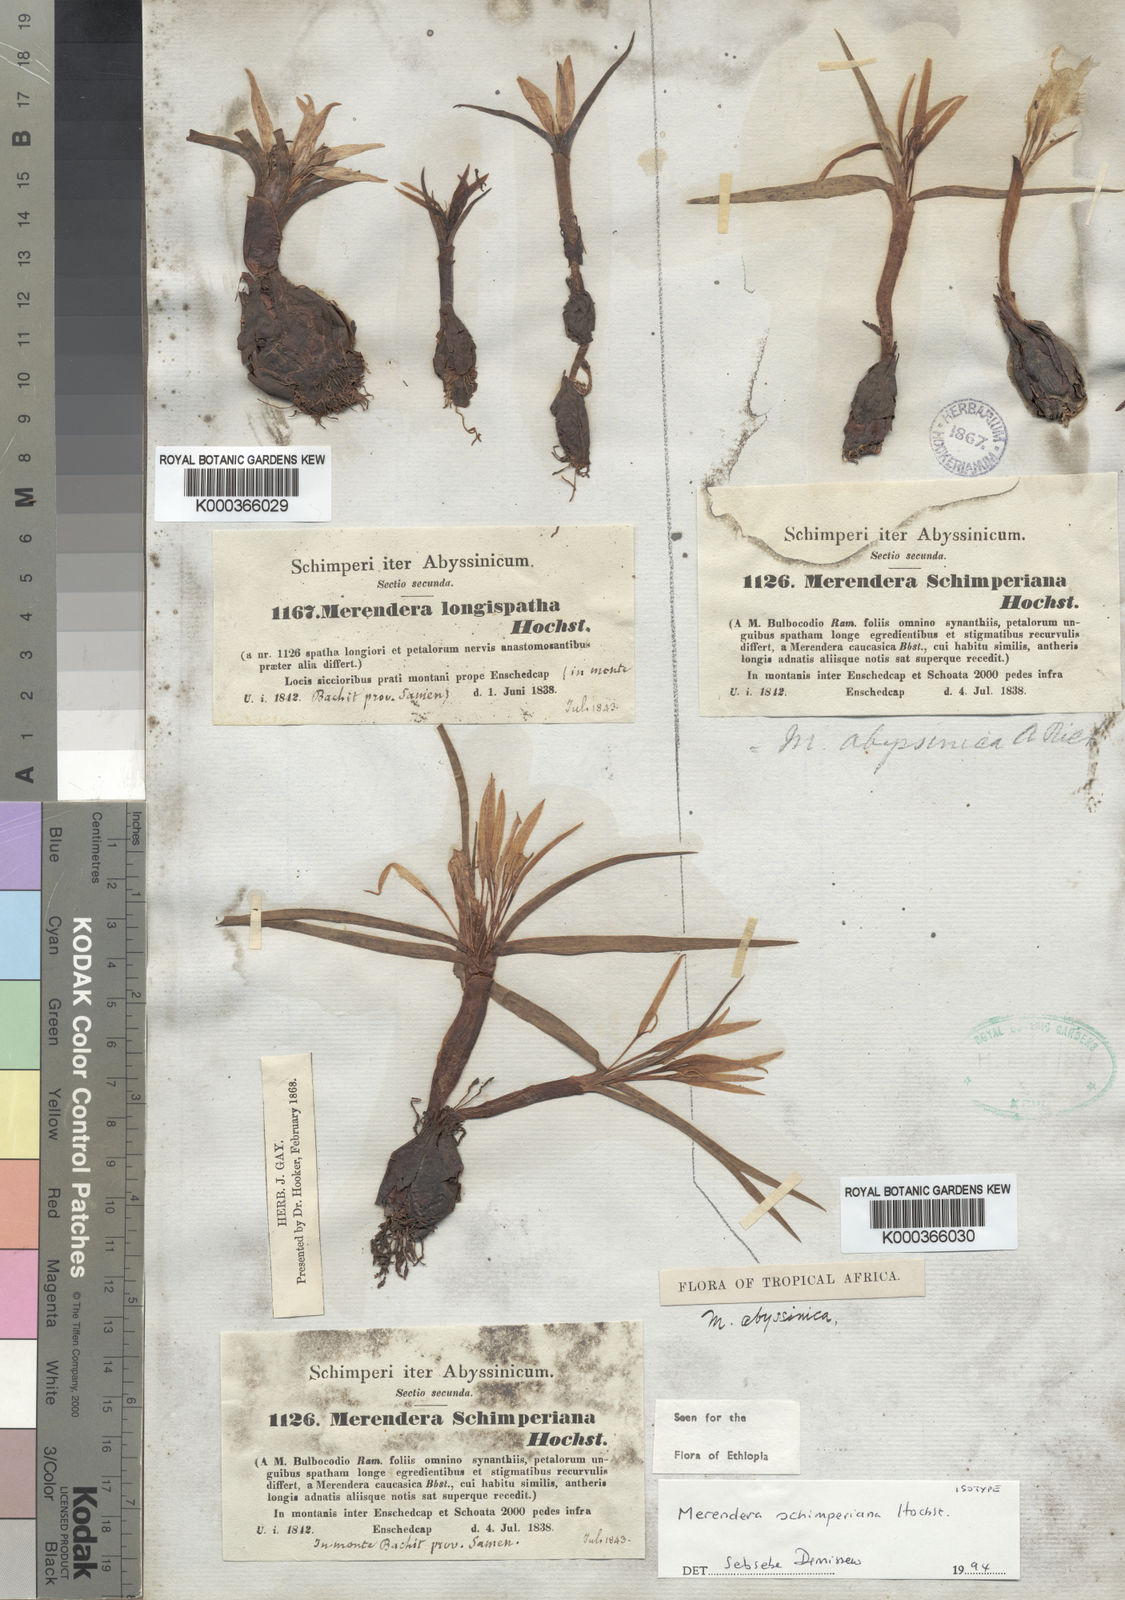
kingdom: Plantae
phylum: Tracheophyta
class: Liliopsida
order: Liliales
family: Colchicaceae
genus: Colchicum
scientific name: Colchicum
